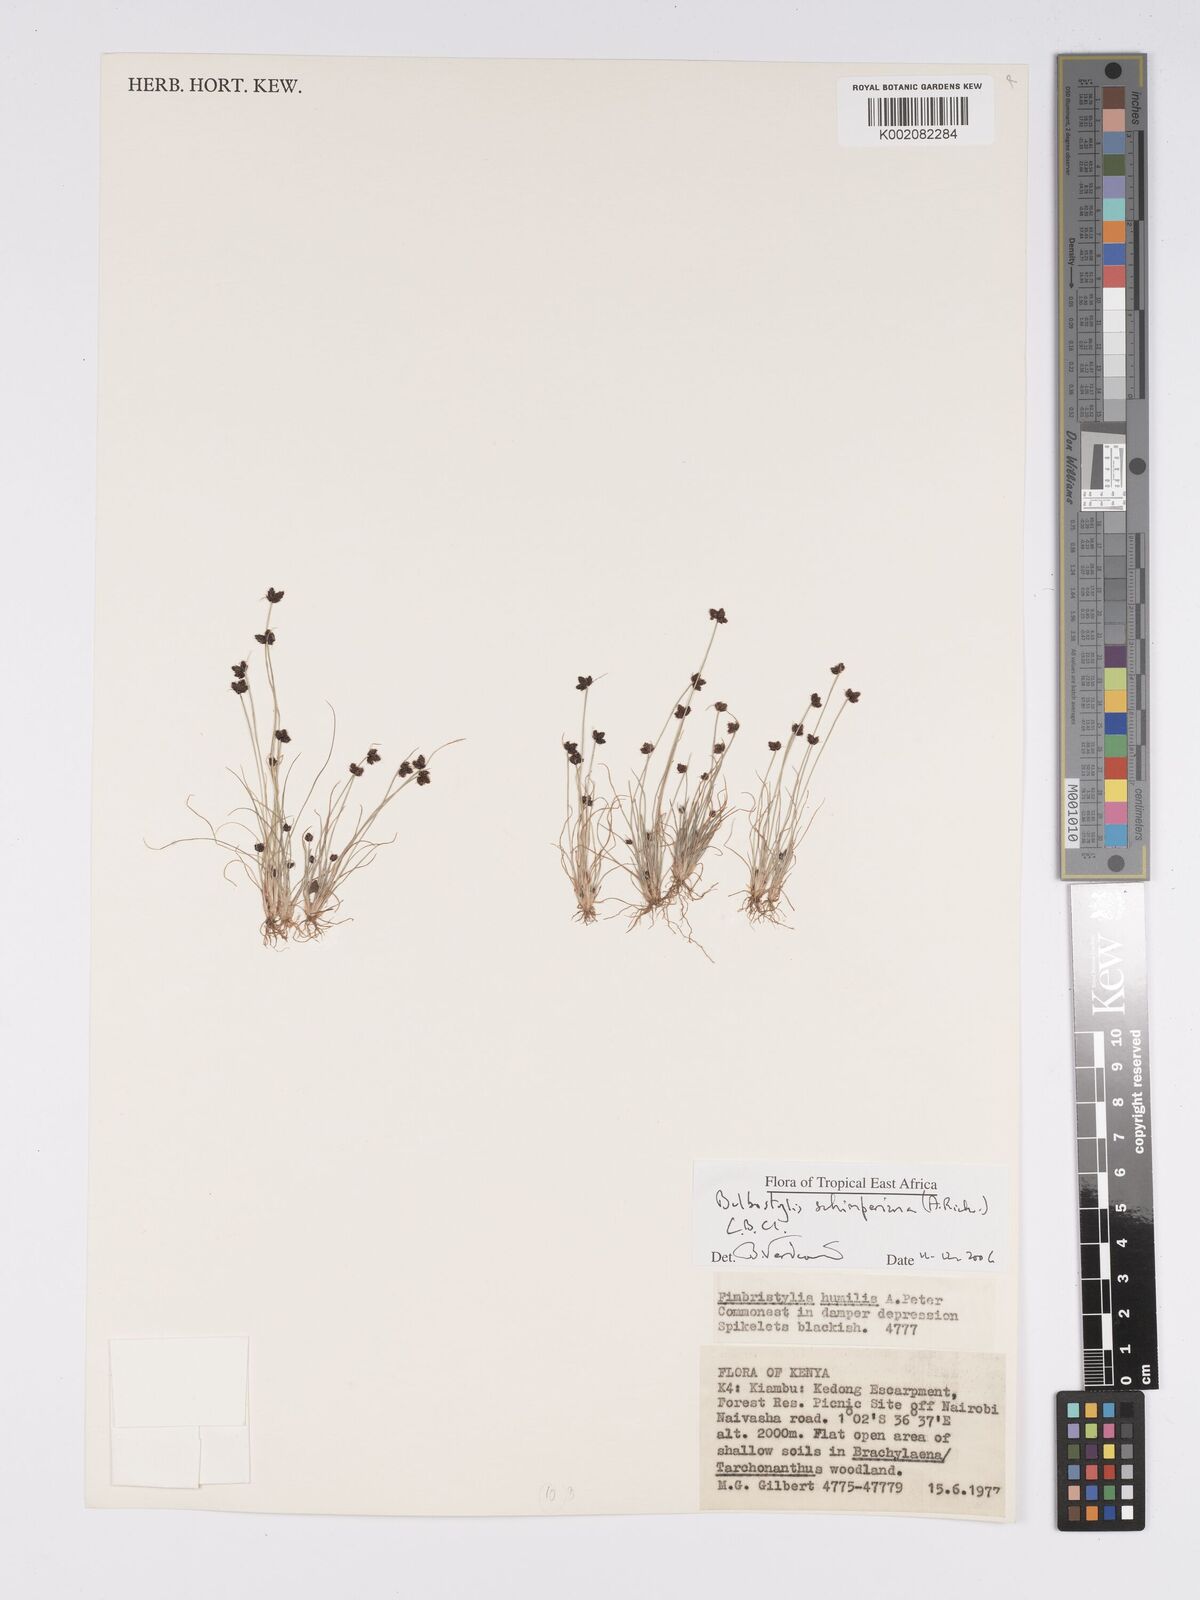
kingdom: Plantae
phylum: Tracheophyta
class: Liliopsida
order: Poales
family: Cyperaceae
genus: Bulbostylis
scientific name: Bulbostylis schimperiana
